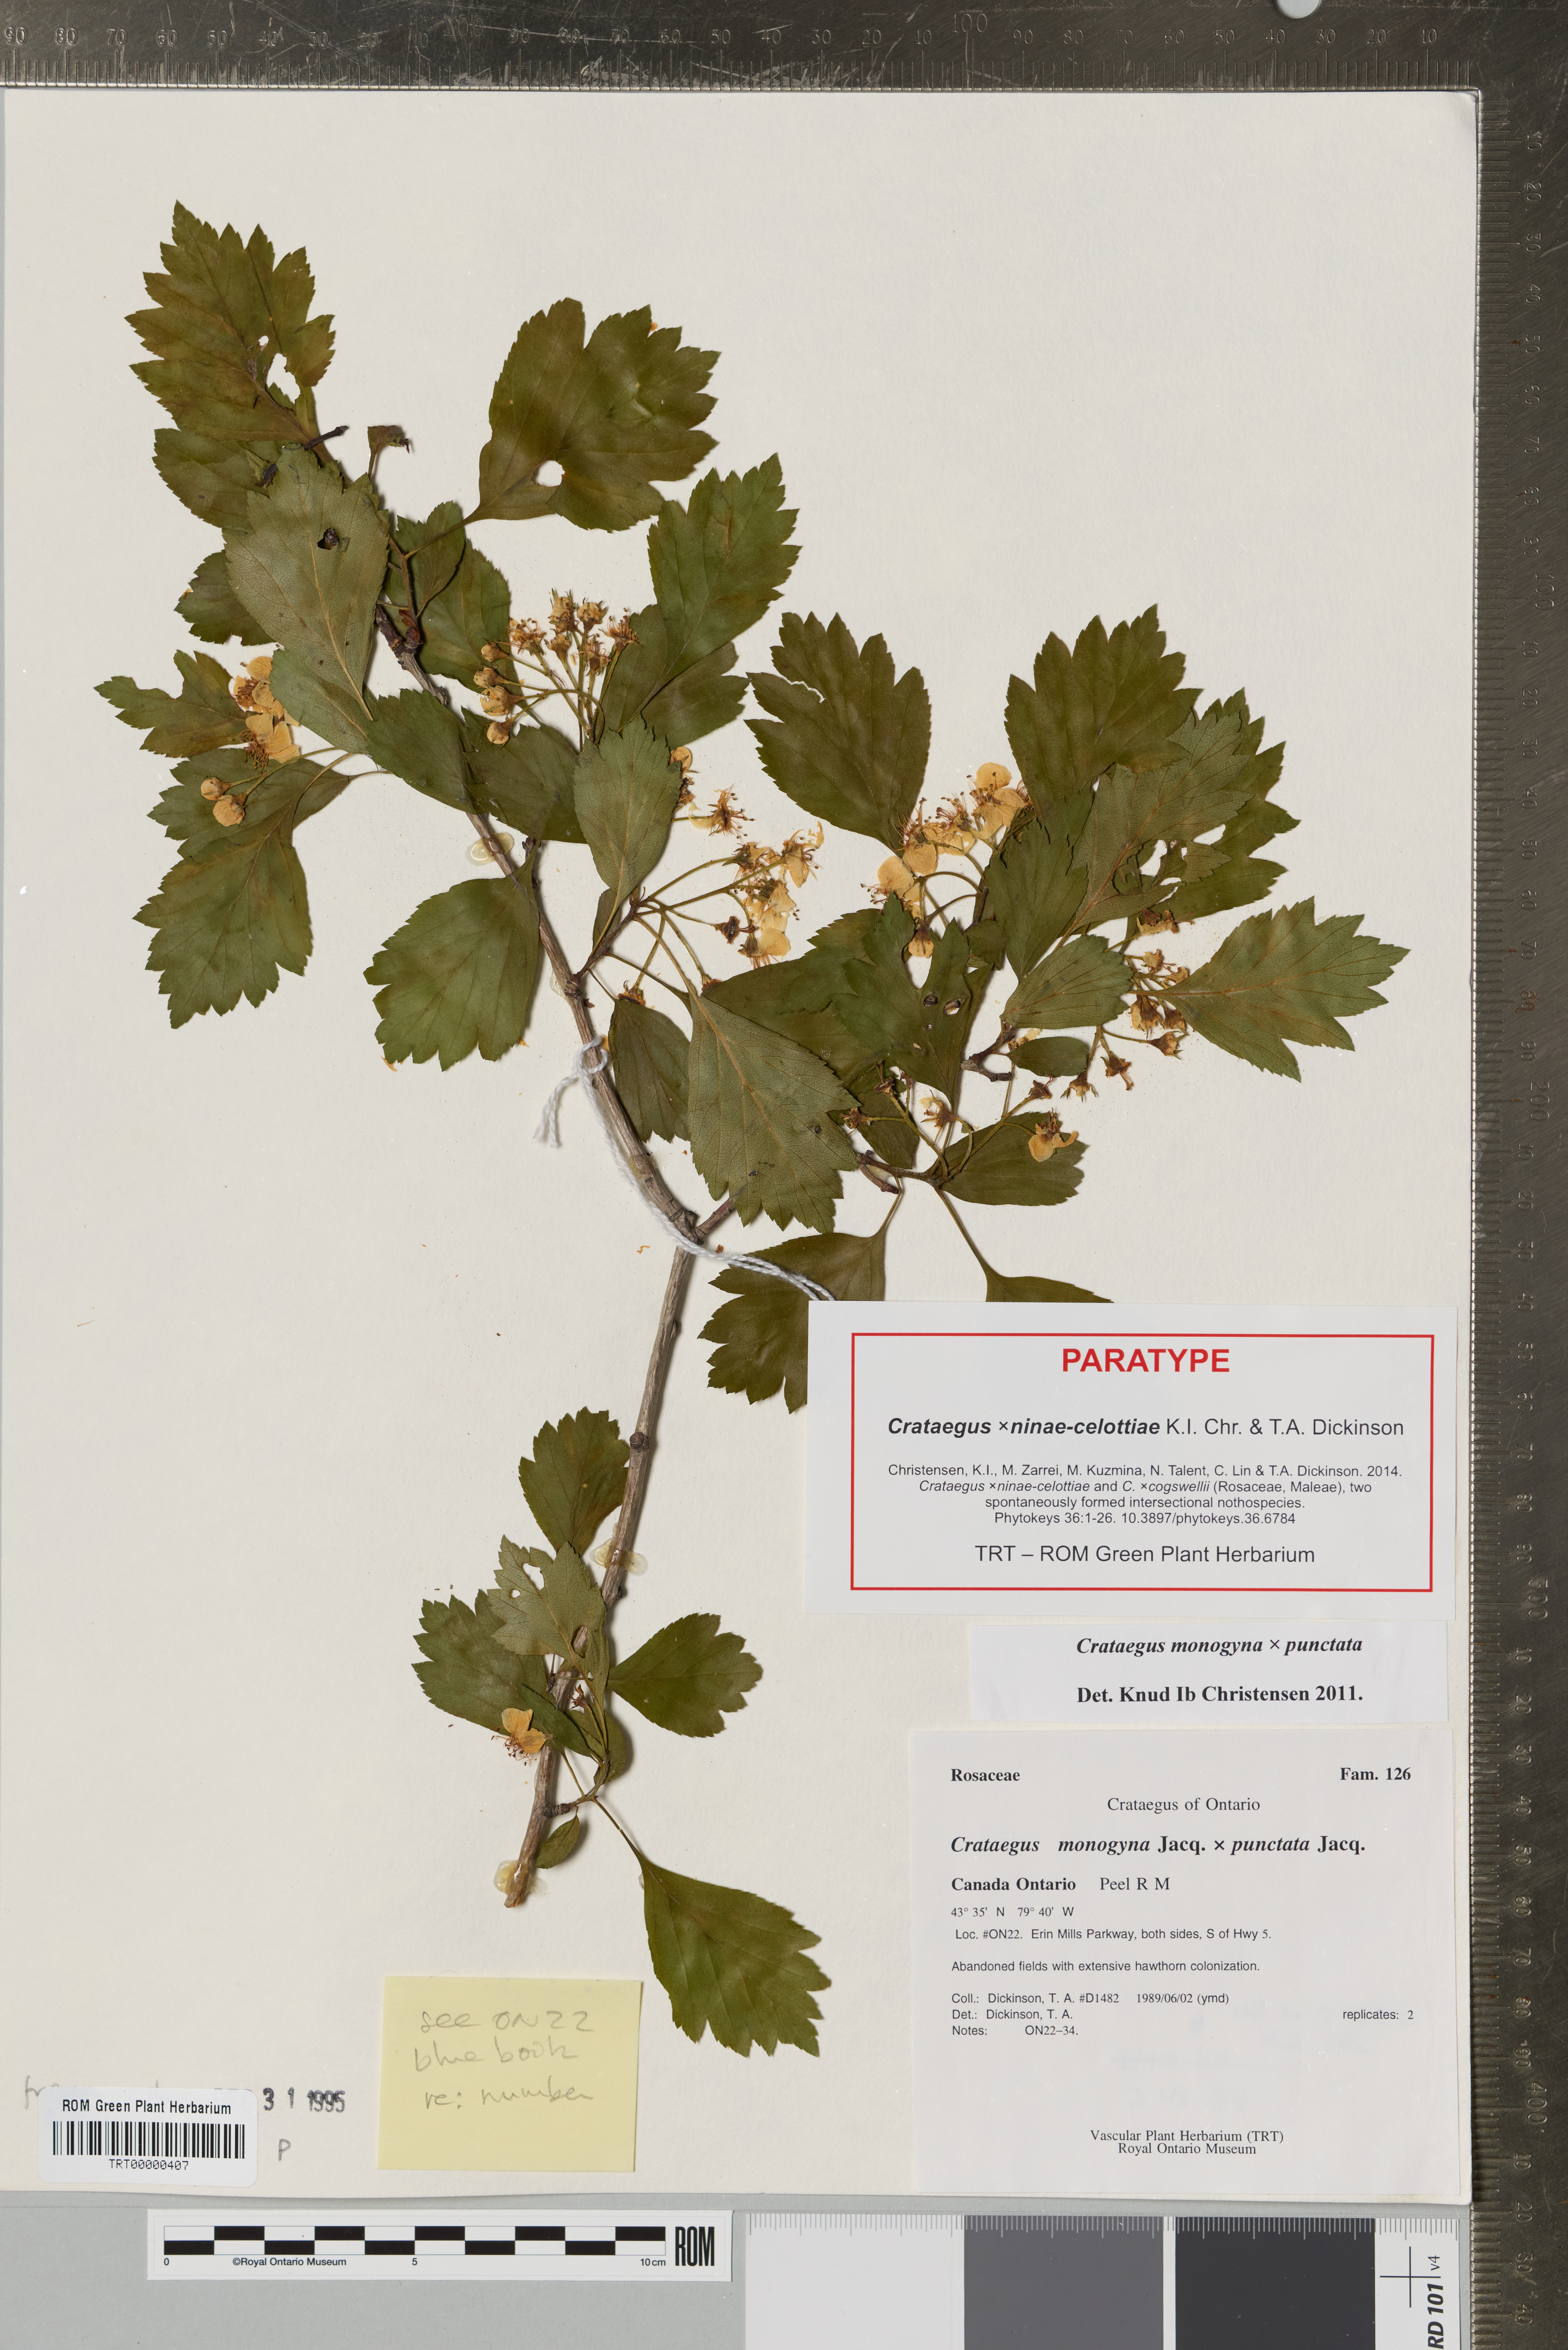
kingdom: Plantae
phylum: Tracheophyta
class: Magnoliopsida
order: Rosales
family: Rosaceae
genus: Crataegus
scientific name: Crataegus
